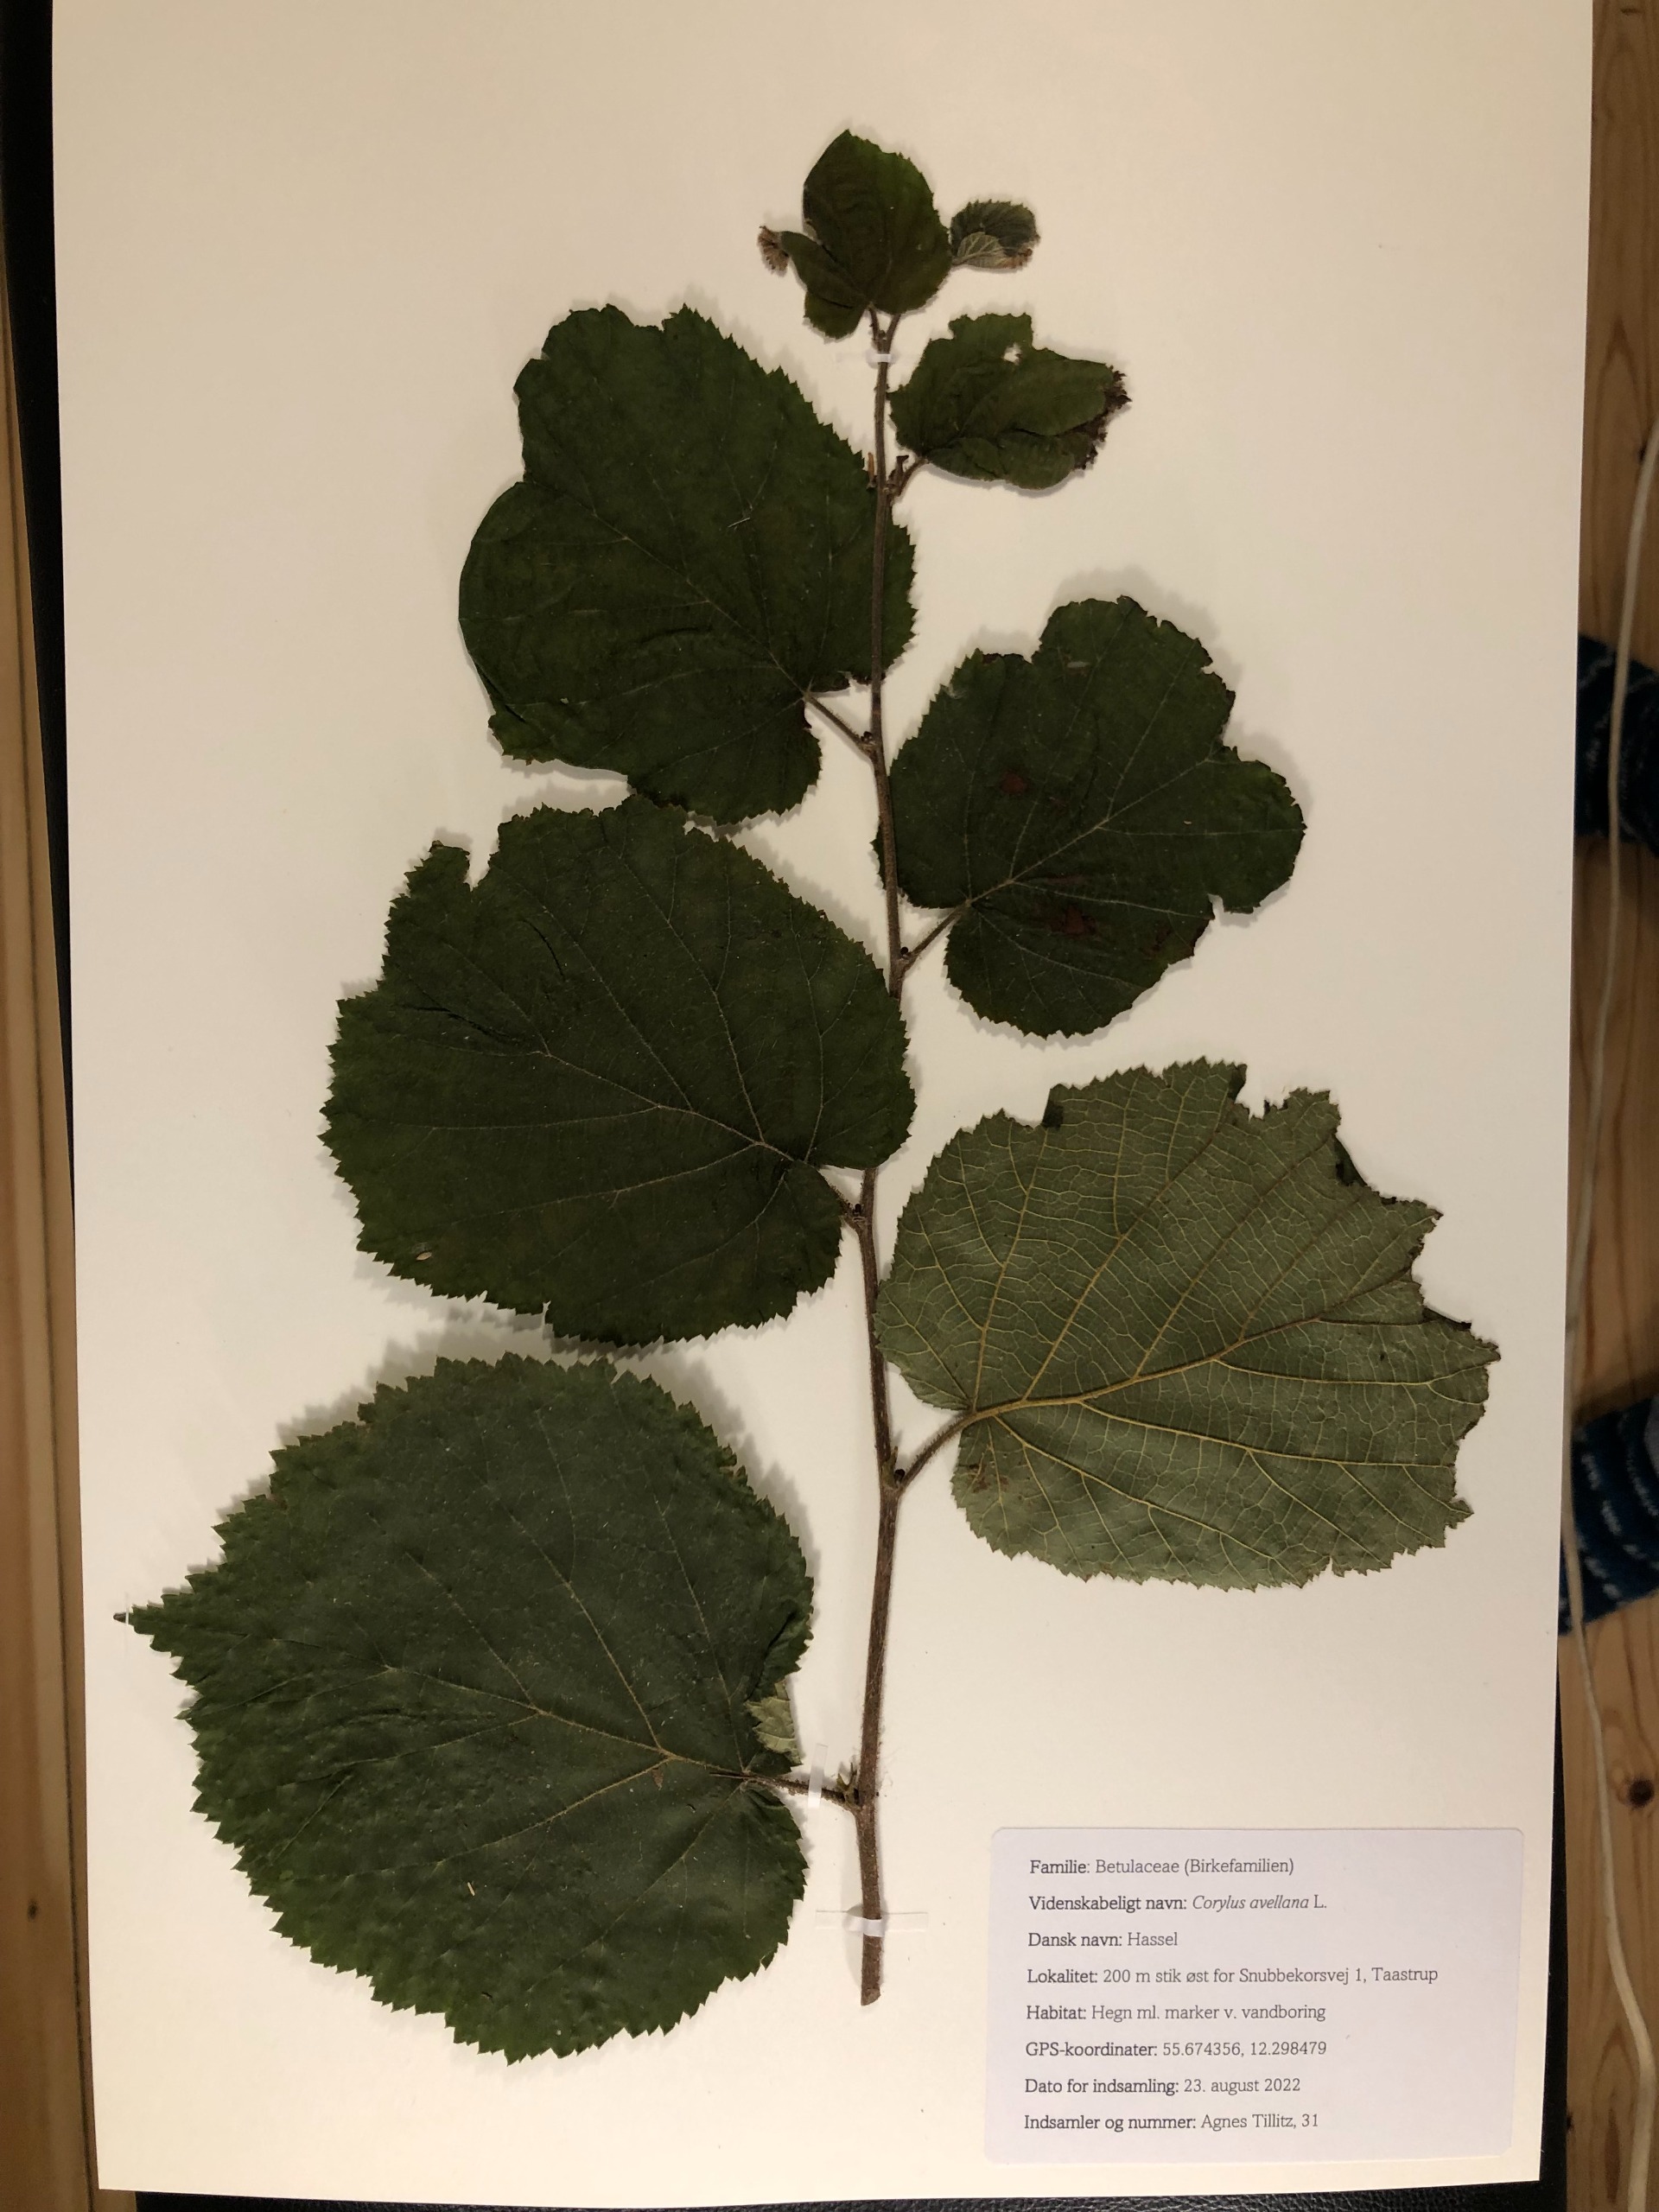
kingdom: Plantae
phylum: Tracheophyta
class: Magnoliopsida
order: Fagales
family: Betulaceae
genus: Corylus
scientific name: Corylus avellana
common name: Hassel
